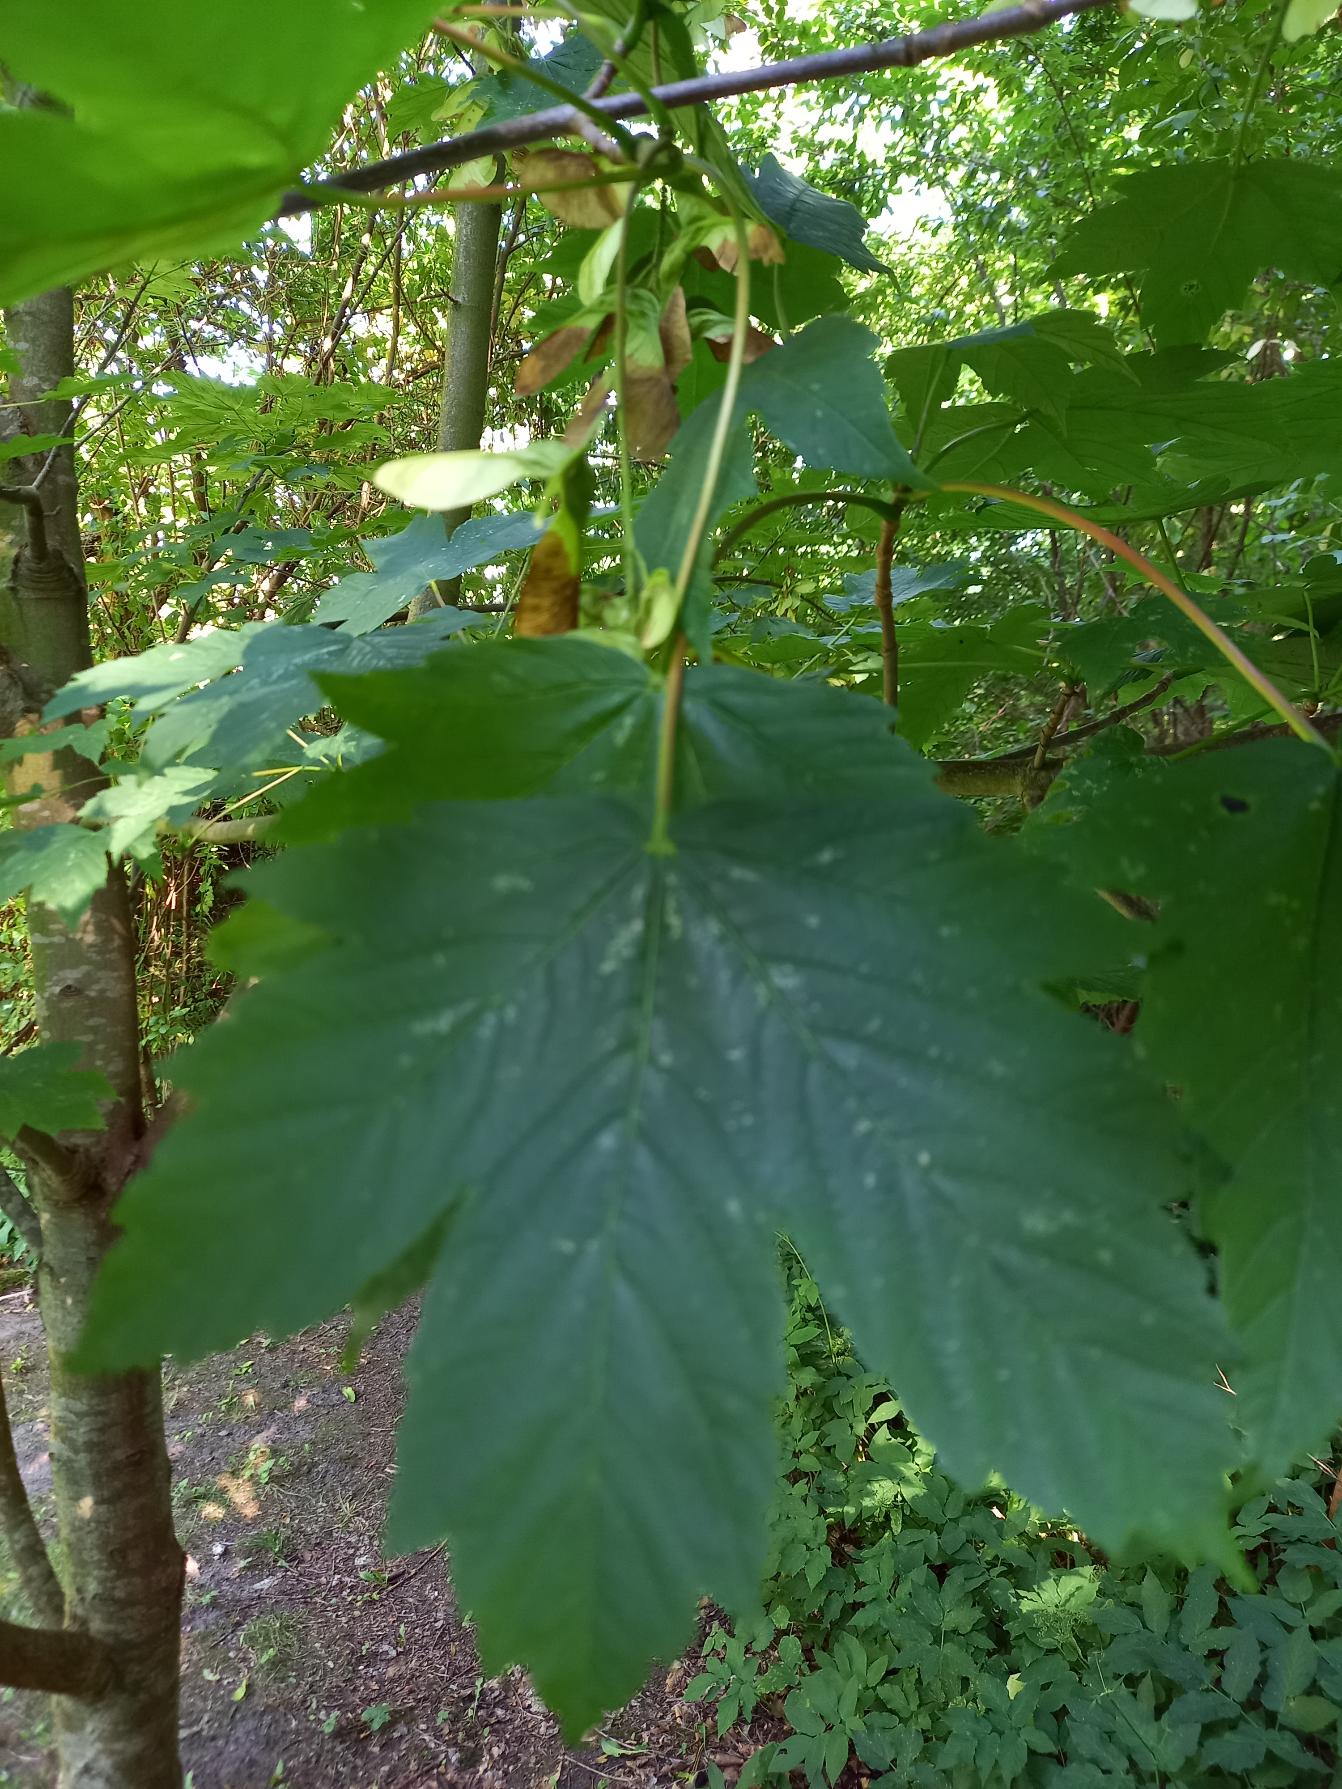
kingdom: Plantae
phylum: Tracheophyta
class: Magnoliopsida
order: Sapindales
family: Sapindaceae
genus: Acer
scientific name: Acer pseudoplatanus
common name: Ahorn
